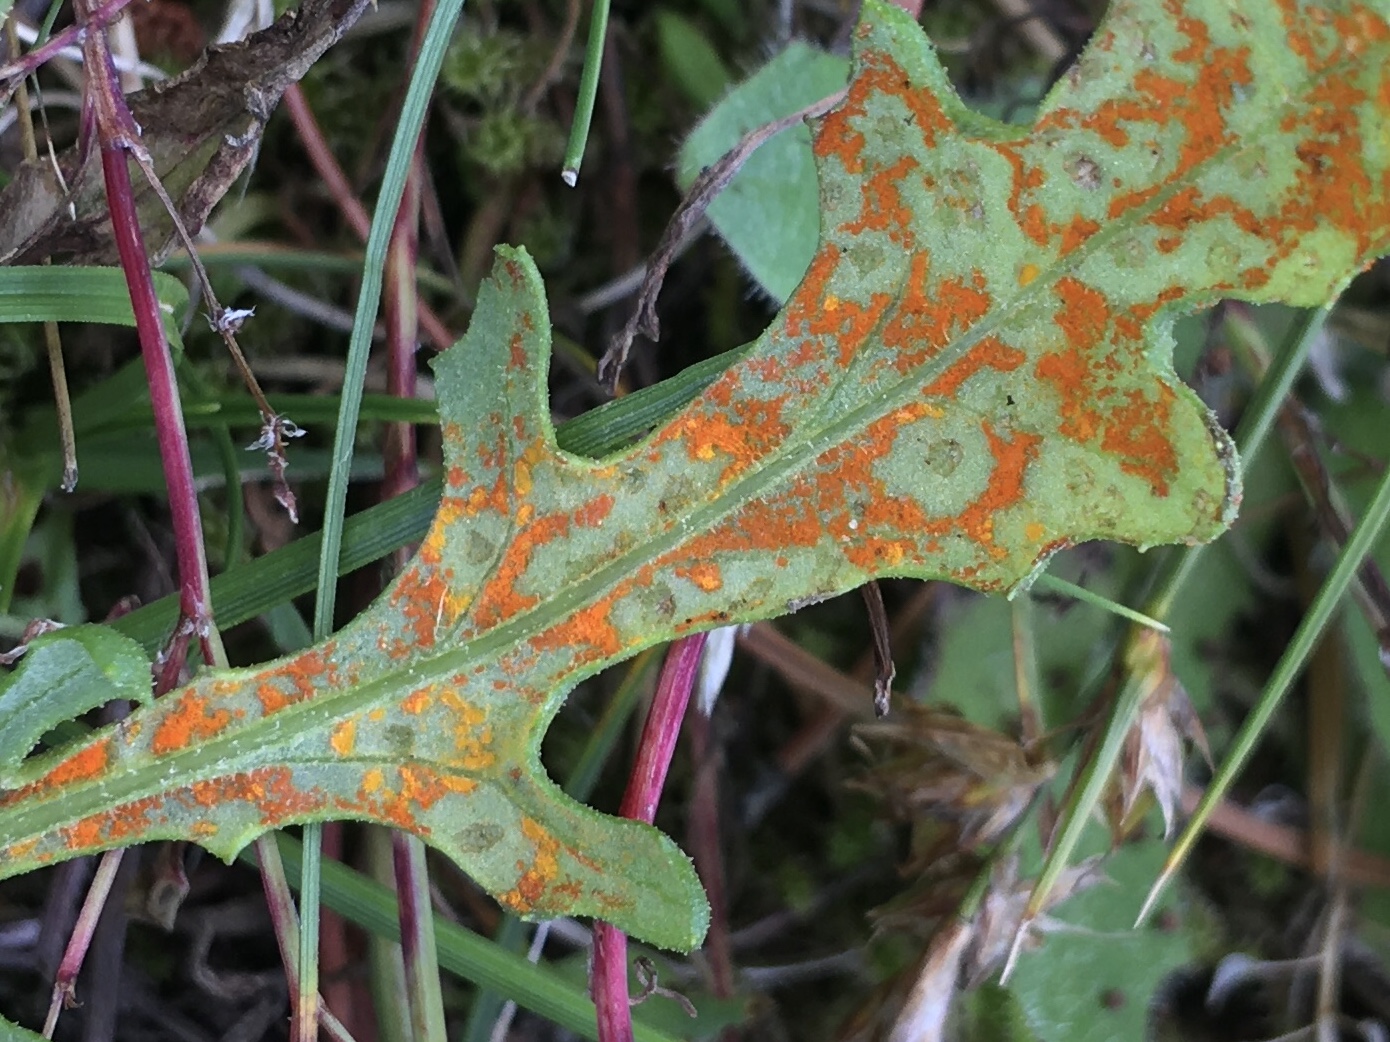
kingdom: Fungi
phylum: Basidiomycota
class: Pucciniomycetes
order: Pucciniales
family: Coleosporiaceae
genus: Coleosporium
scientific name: Coleosporium tussilaginis
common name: almindelig fyrrenålerust
